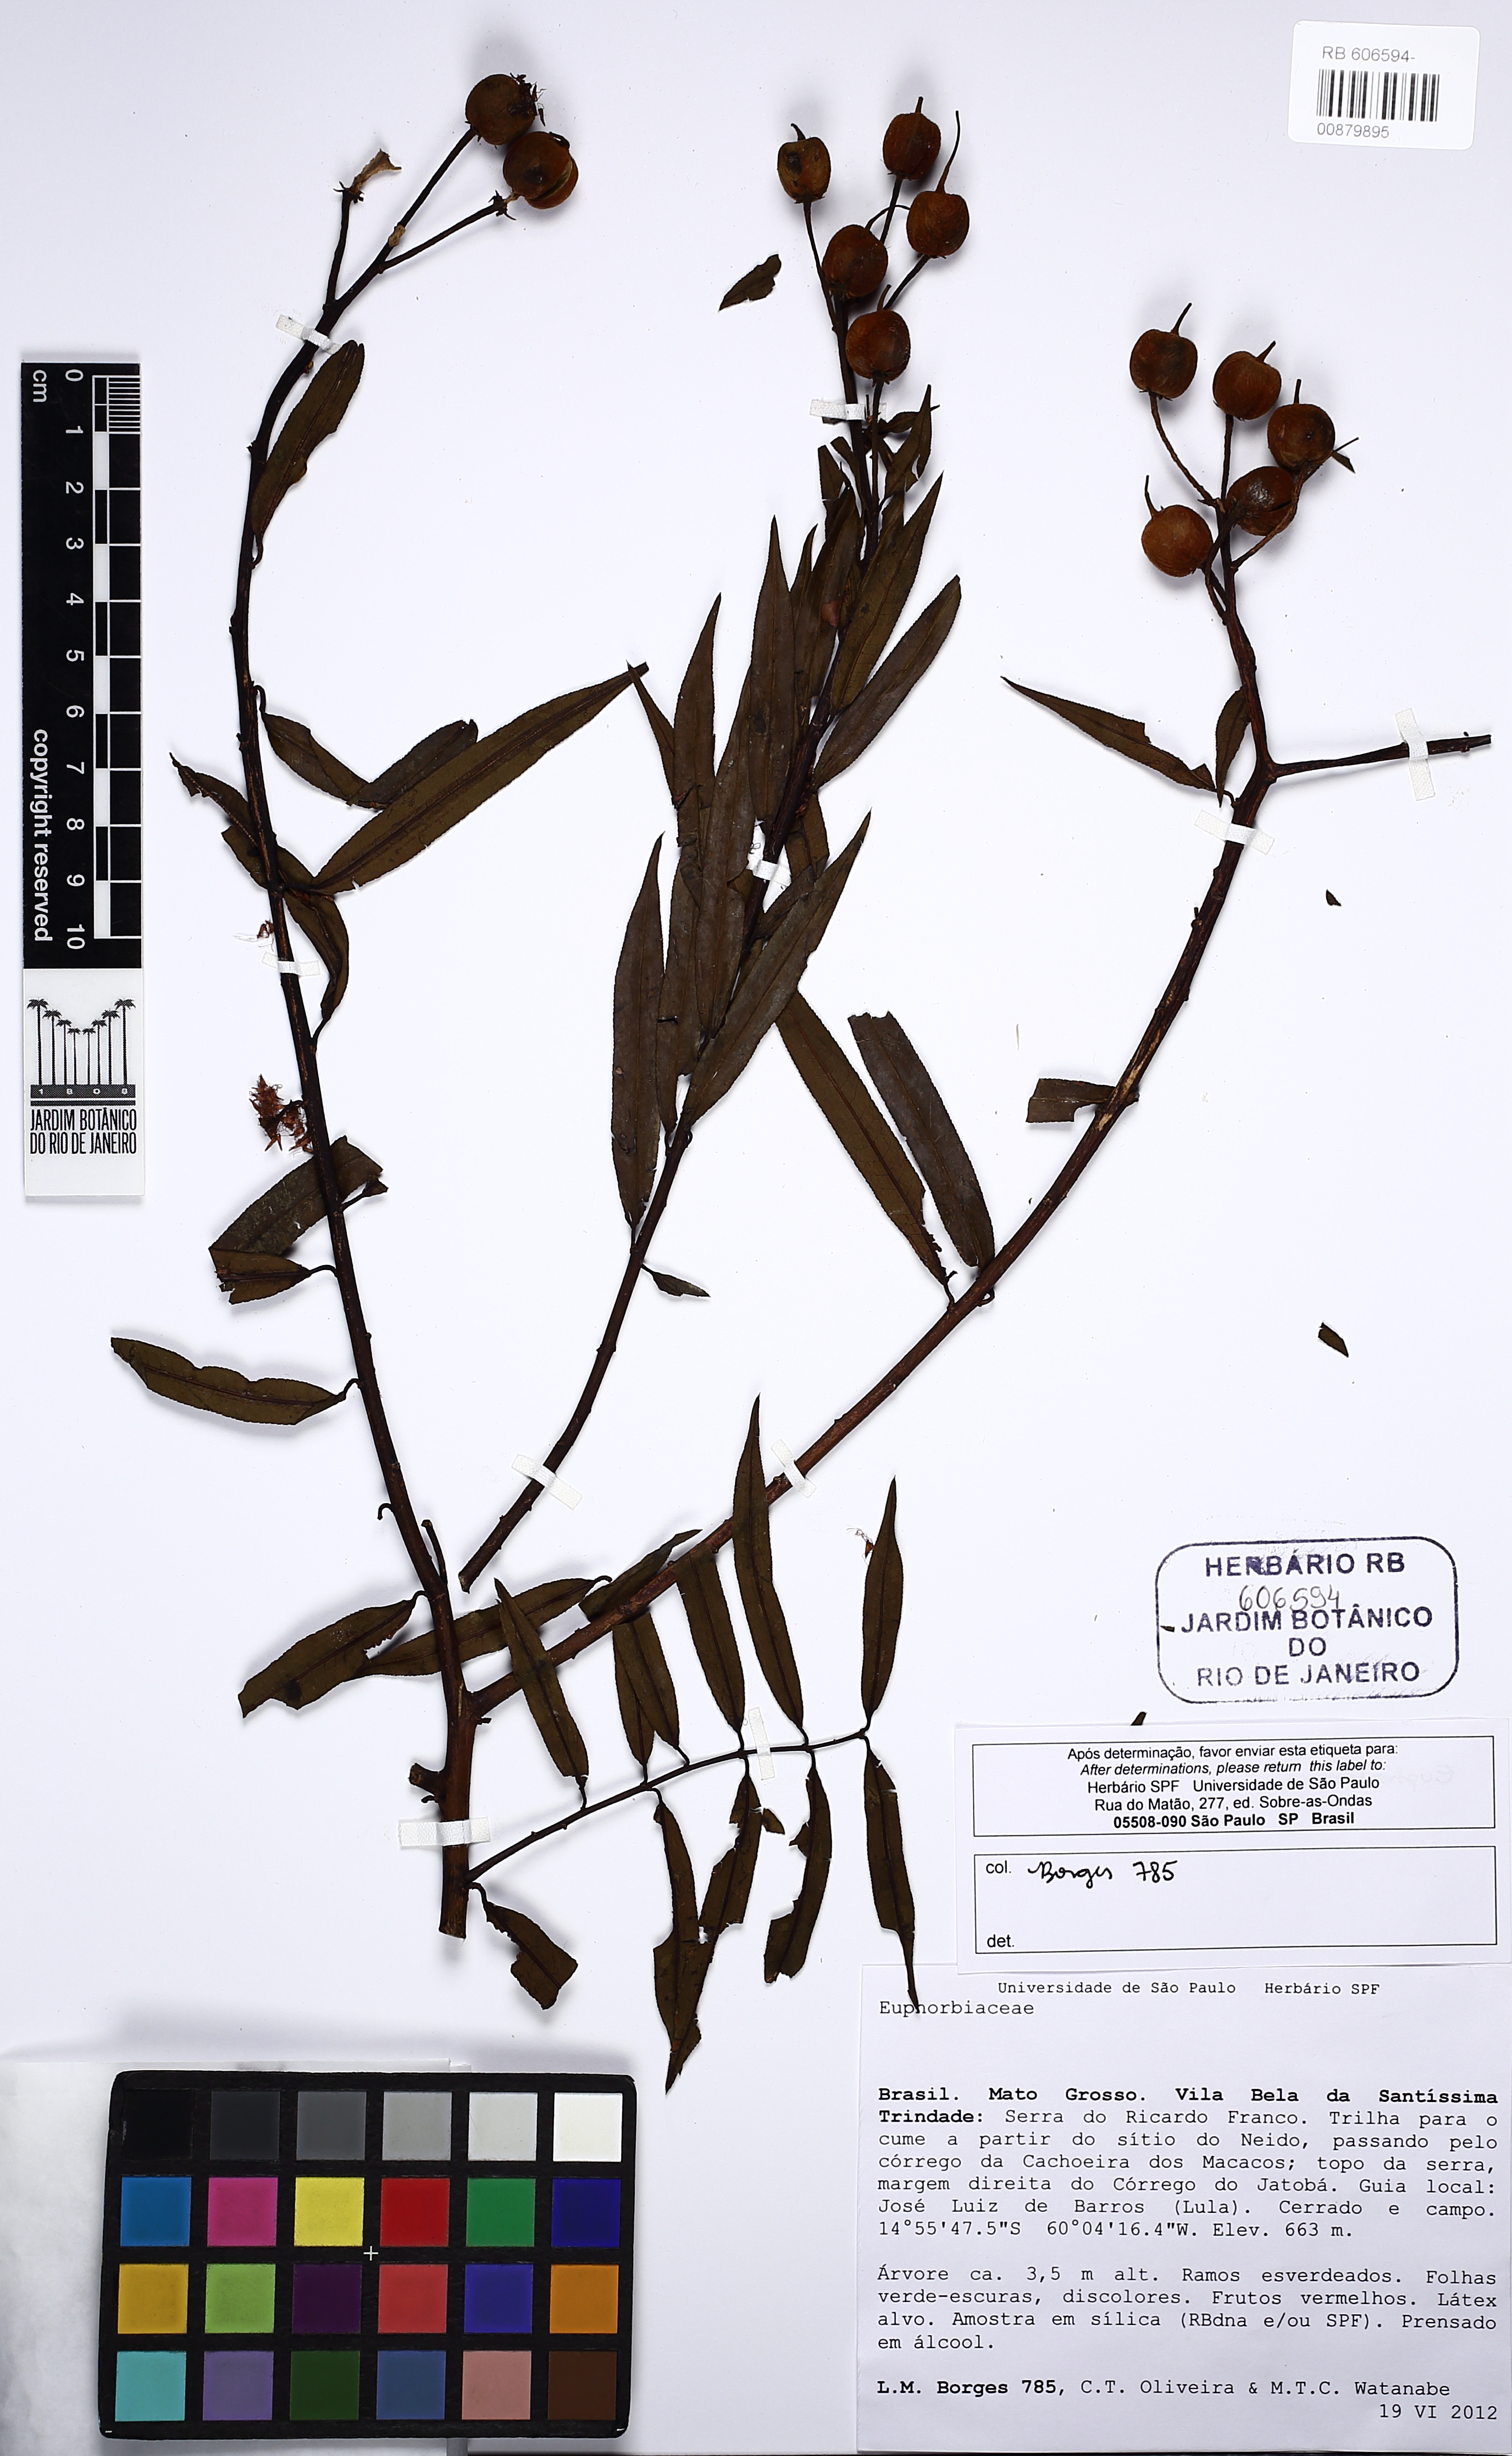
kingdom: Plantae
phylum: Tracheophyta
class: Magnoliopsida
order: Malpighiales
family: Euphorbiaceae
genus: Mabea
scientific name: Mabea fistulifera
